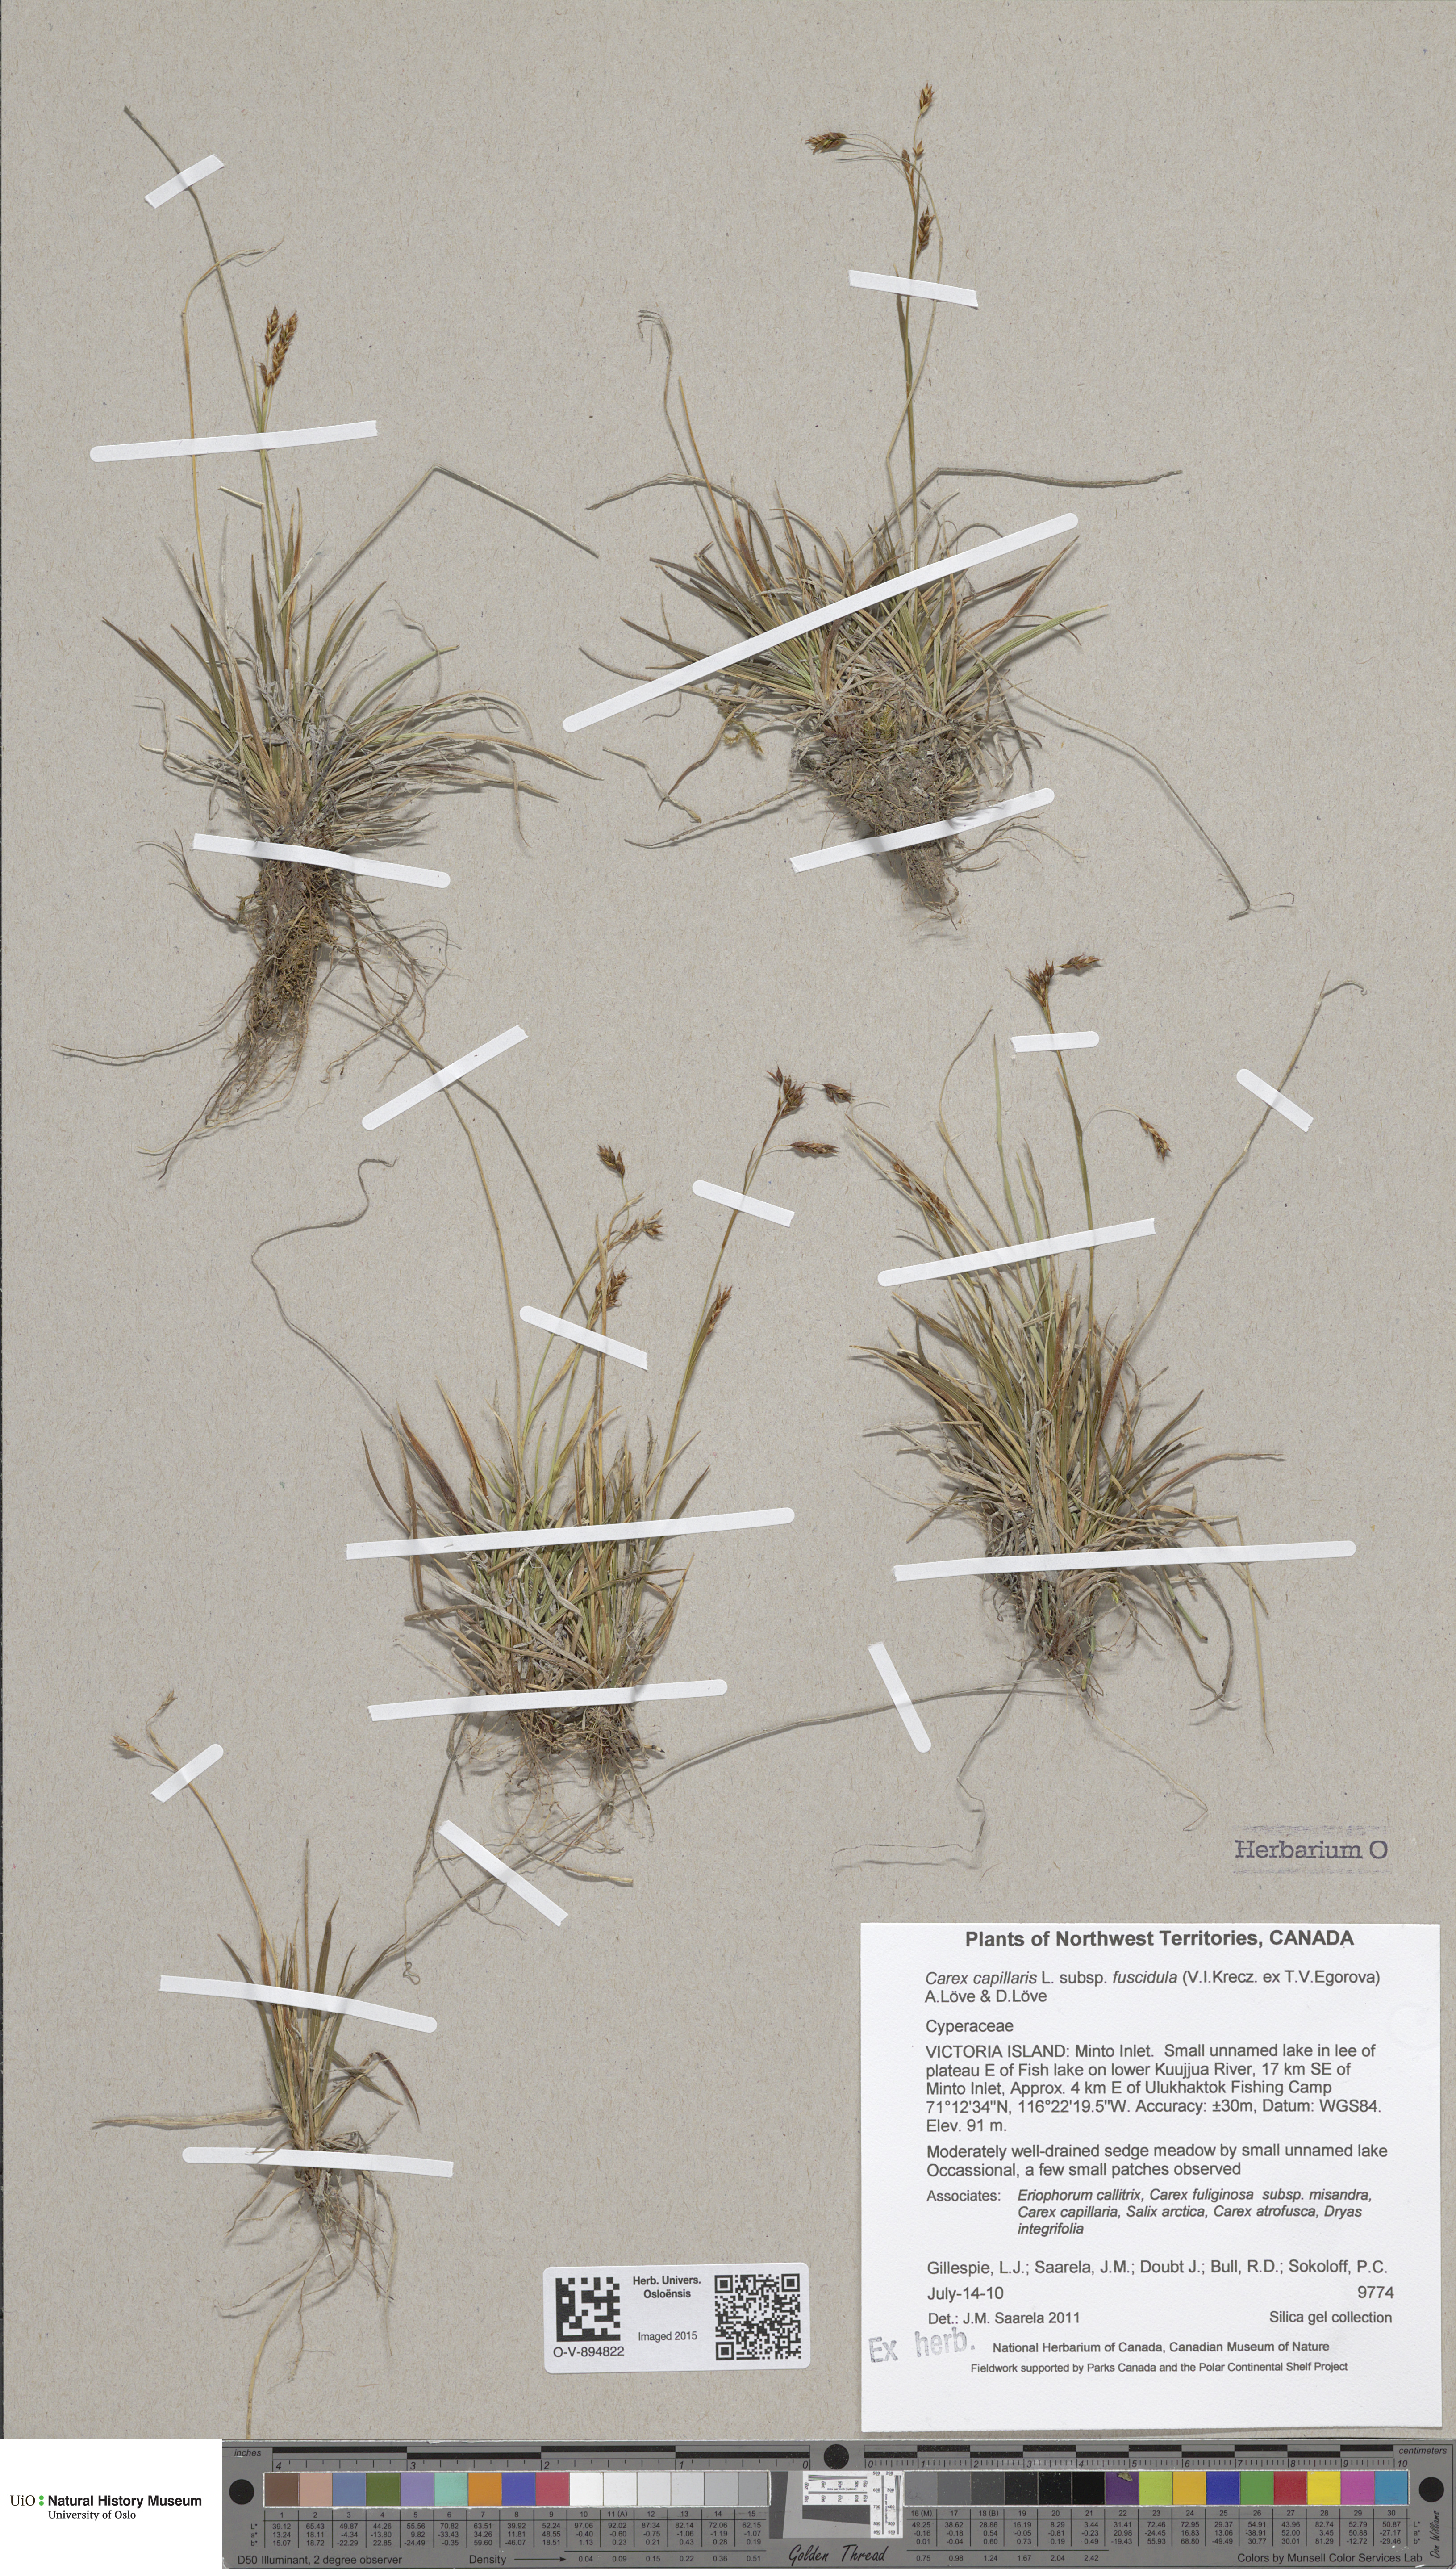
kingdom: Plantae
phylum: Tracheophyta
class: Liliopsida
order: Poales
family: Cyperaceae
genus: Carex
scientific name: Carex capillaris
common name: Hair sedge
